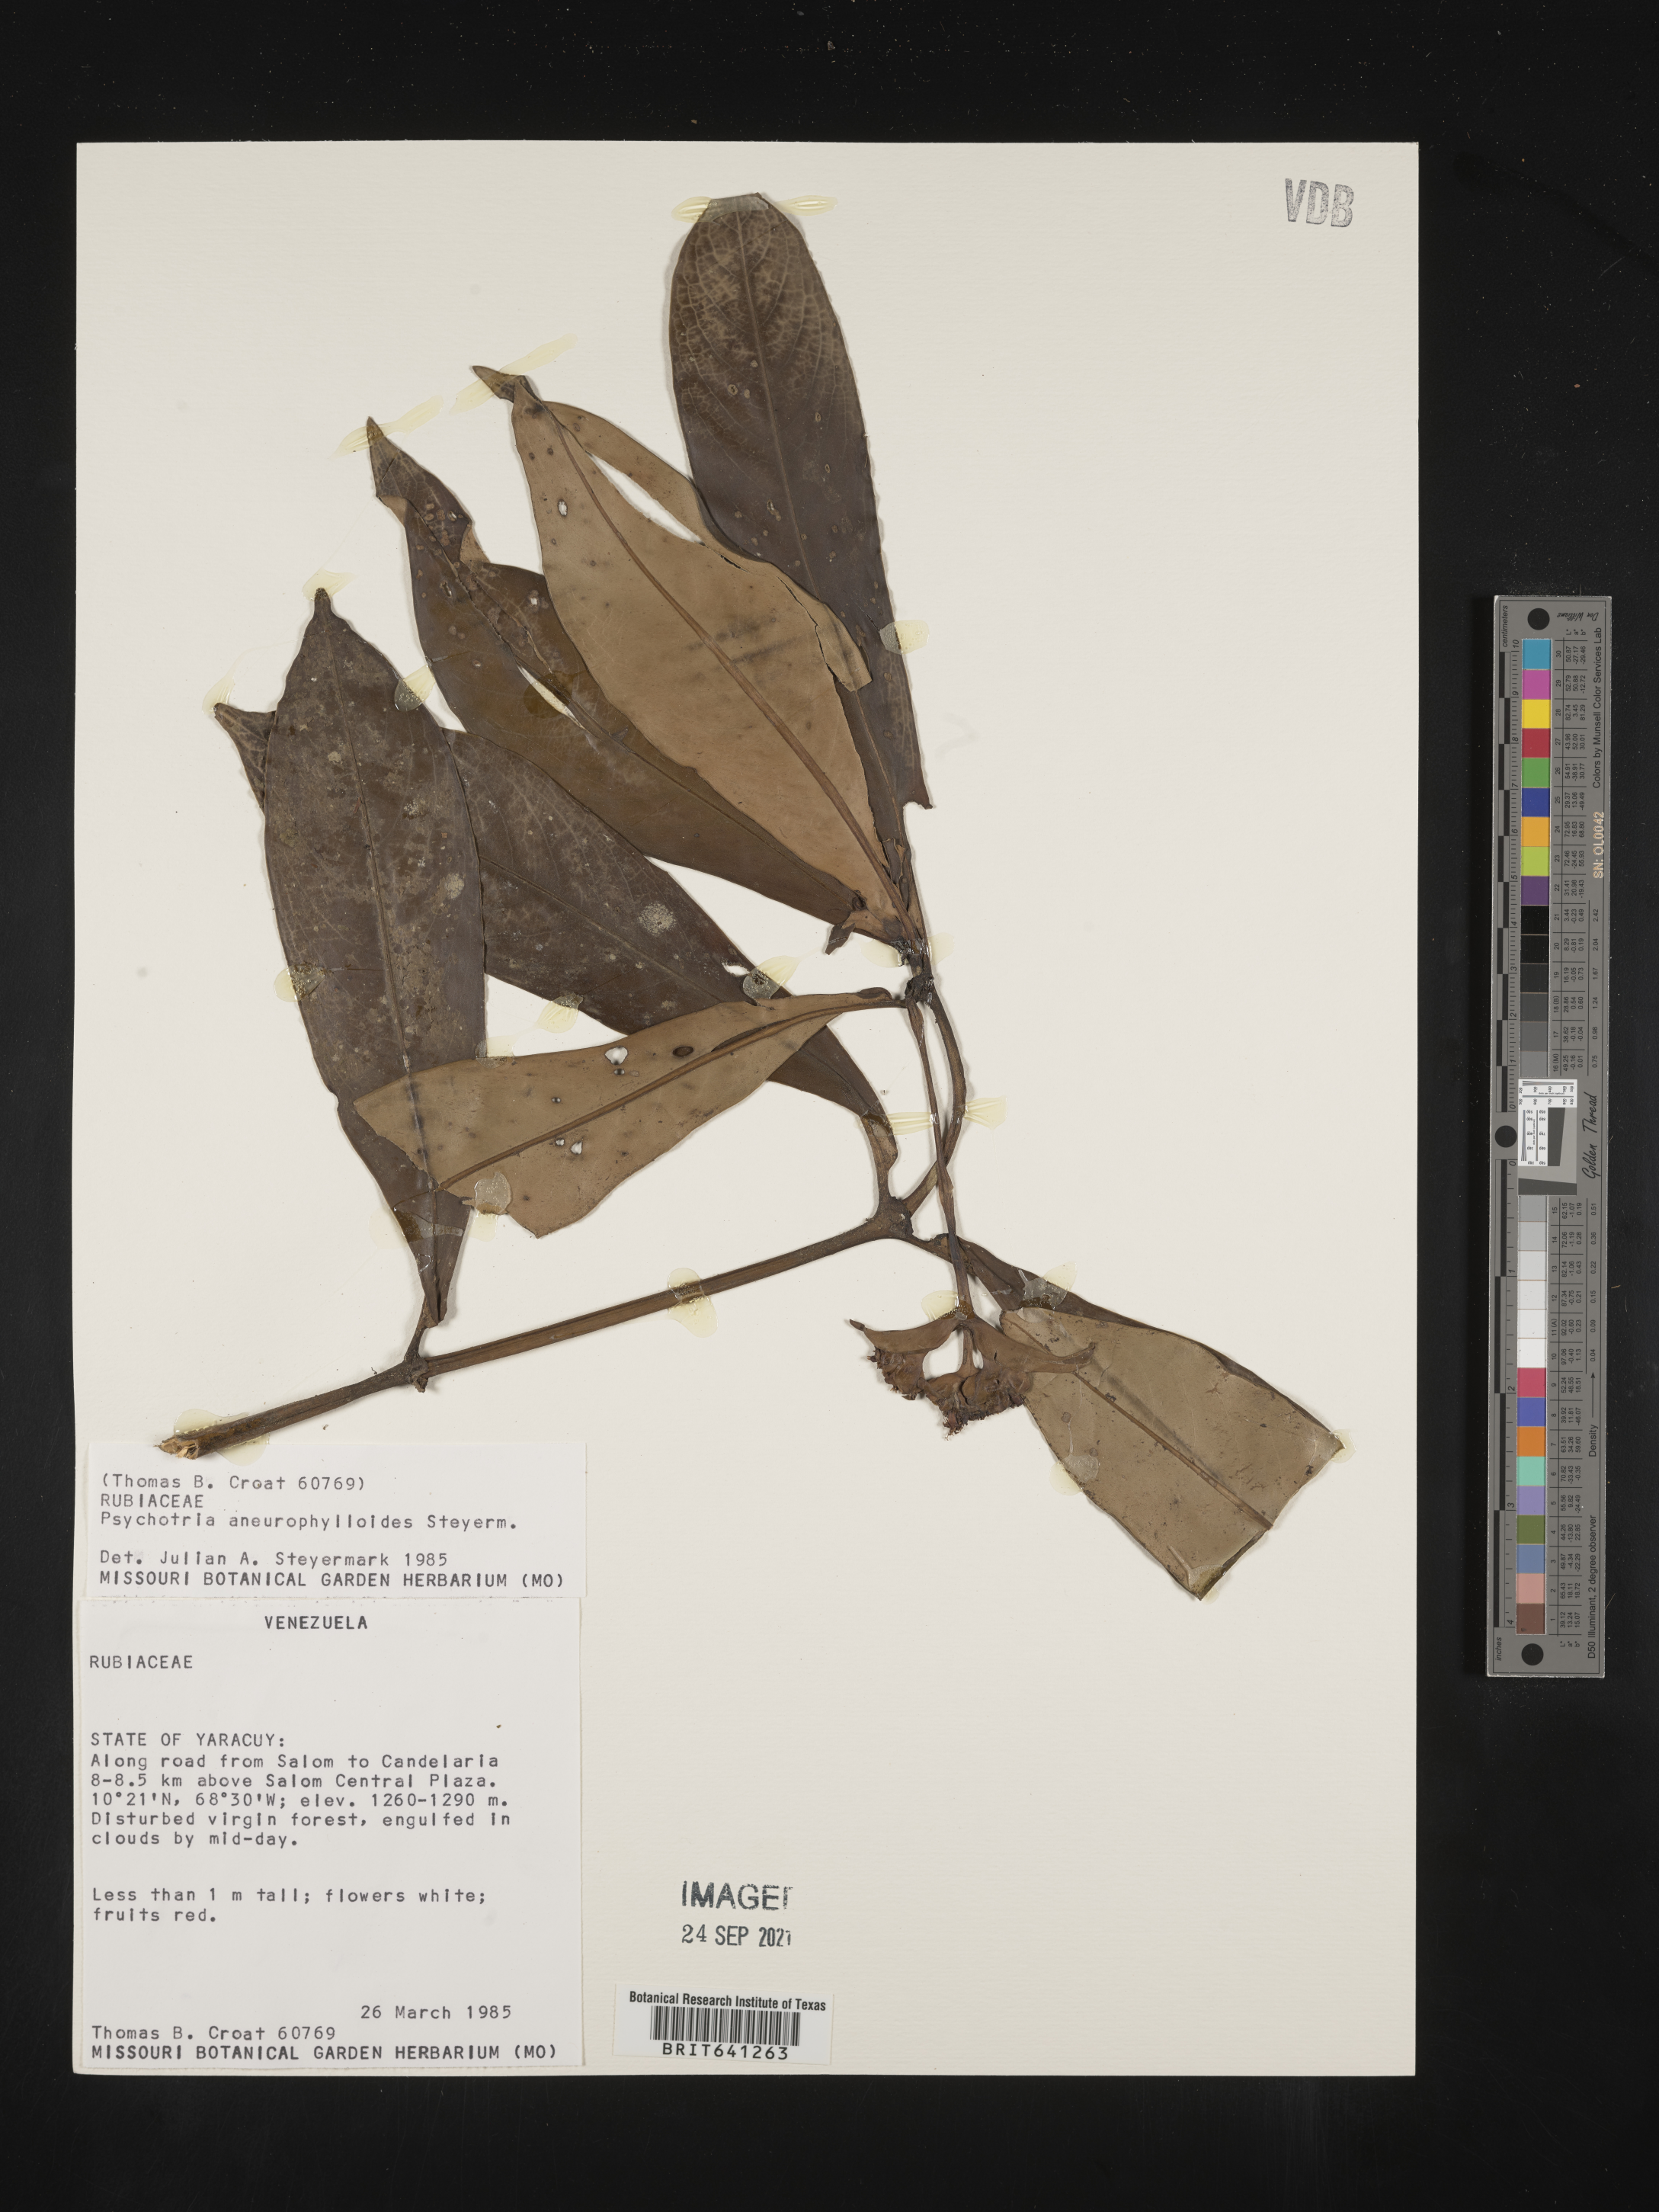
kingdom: Plantae
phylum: Tracheophyta
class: Magnoliopsida
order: Gentianales
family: Rubiaceae
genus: Psychotria
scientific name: Psychotria
